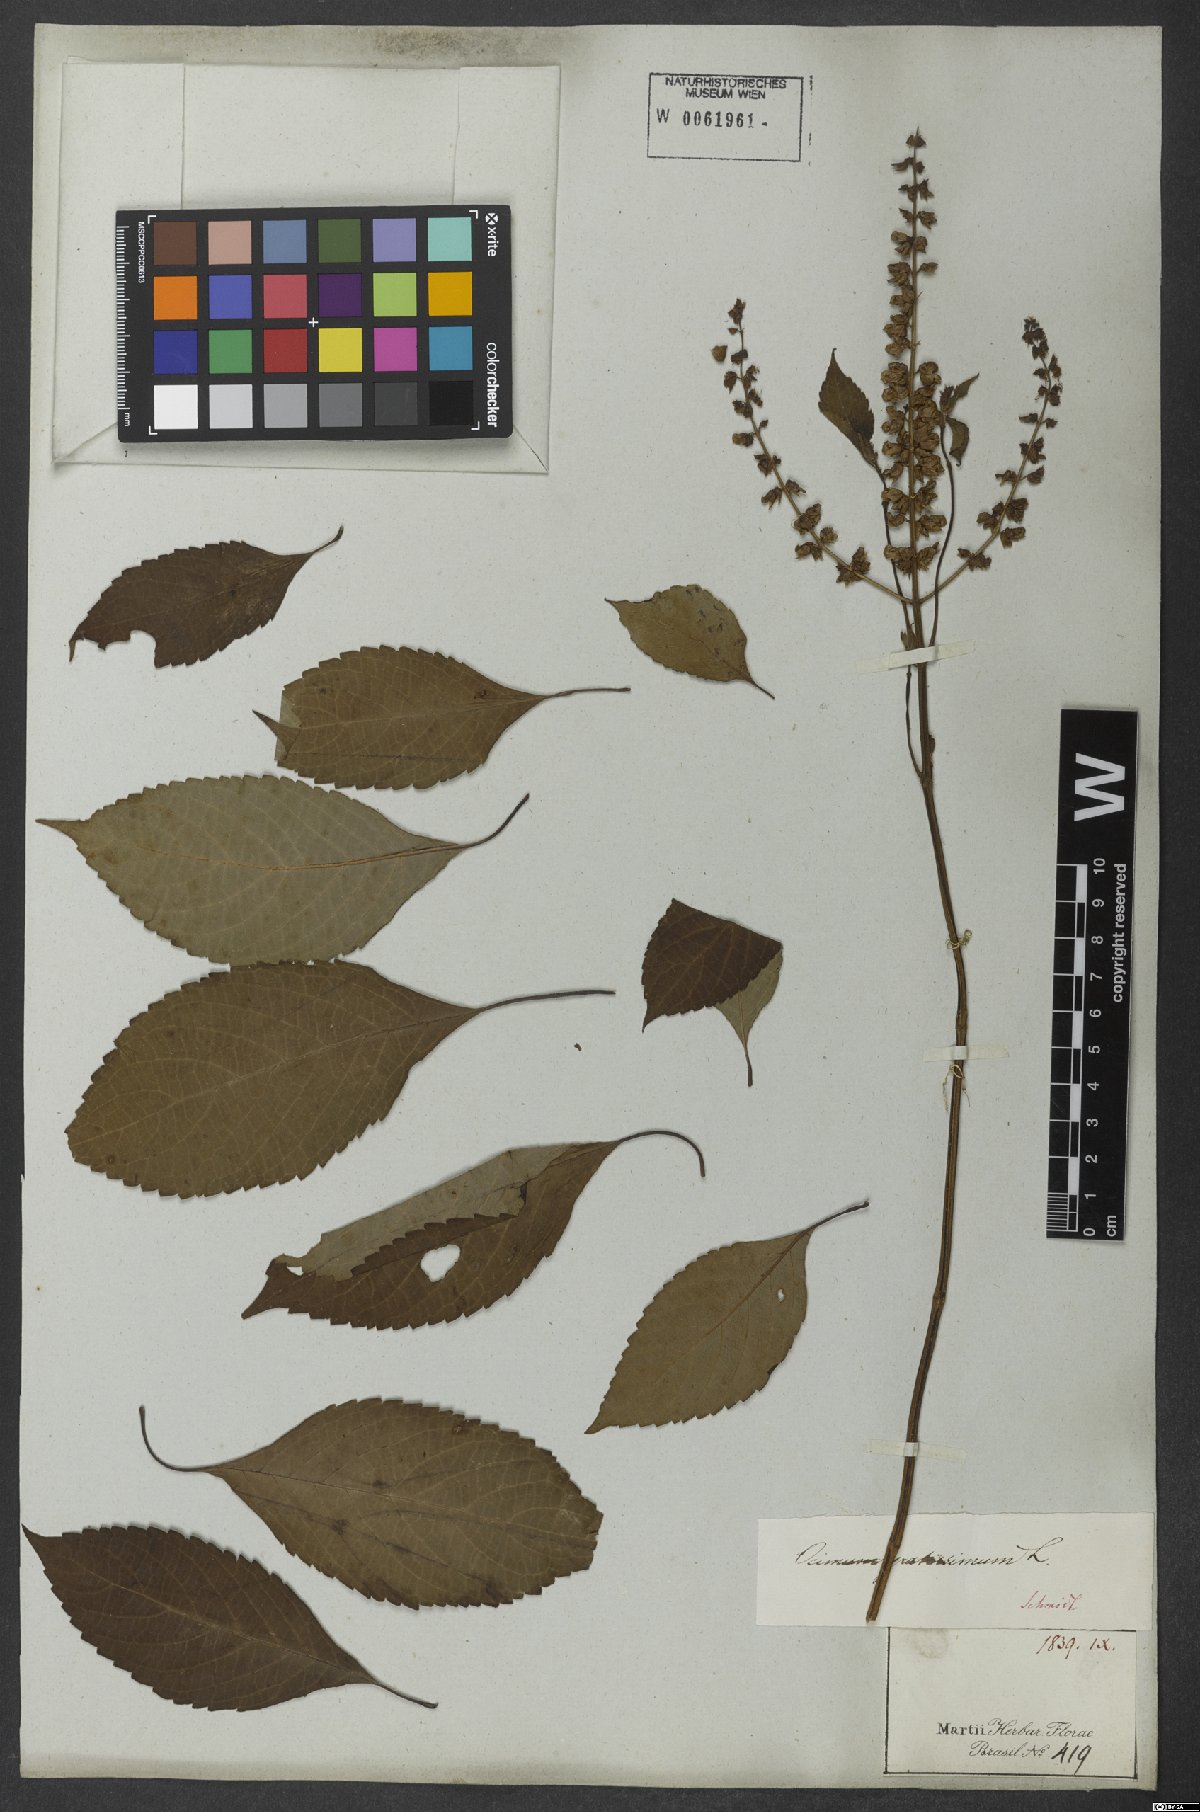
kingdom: Plantae
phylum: Tracheophyta
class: Magnoliopsida
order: Lamiales
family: Lamiaceae
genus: Ocimum
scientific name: Ocimum gratissimum
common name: African basil
